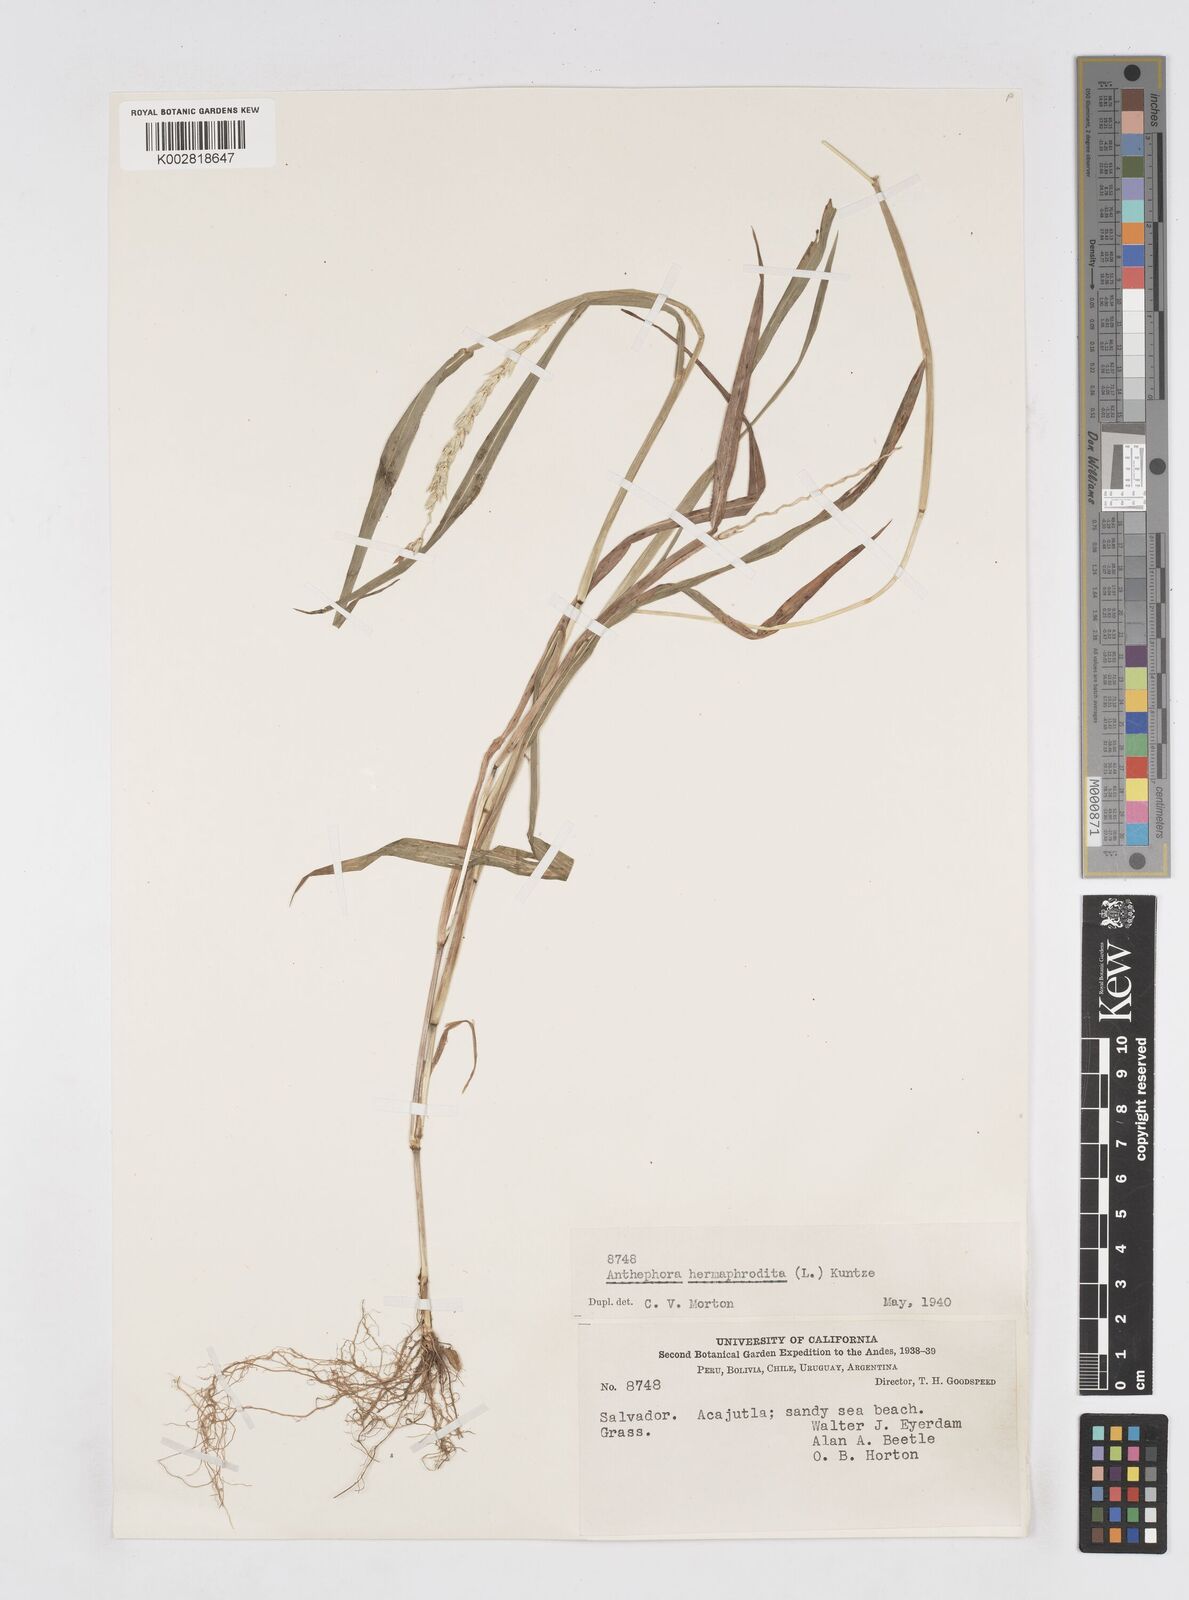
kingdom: Plantae
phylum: Tracheophyta
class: Liliopsida
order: Poales
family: Poaceae
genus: Anthephora
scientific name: Anthephora hermaphrodita
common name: Oldfield grass
